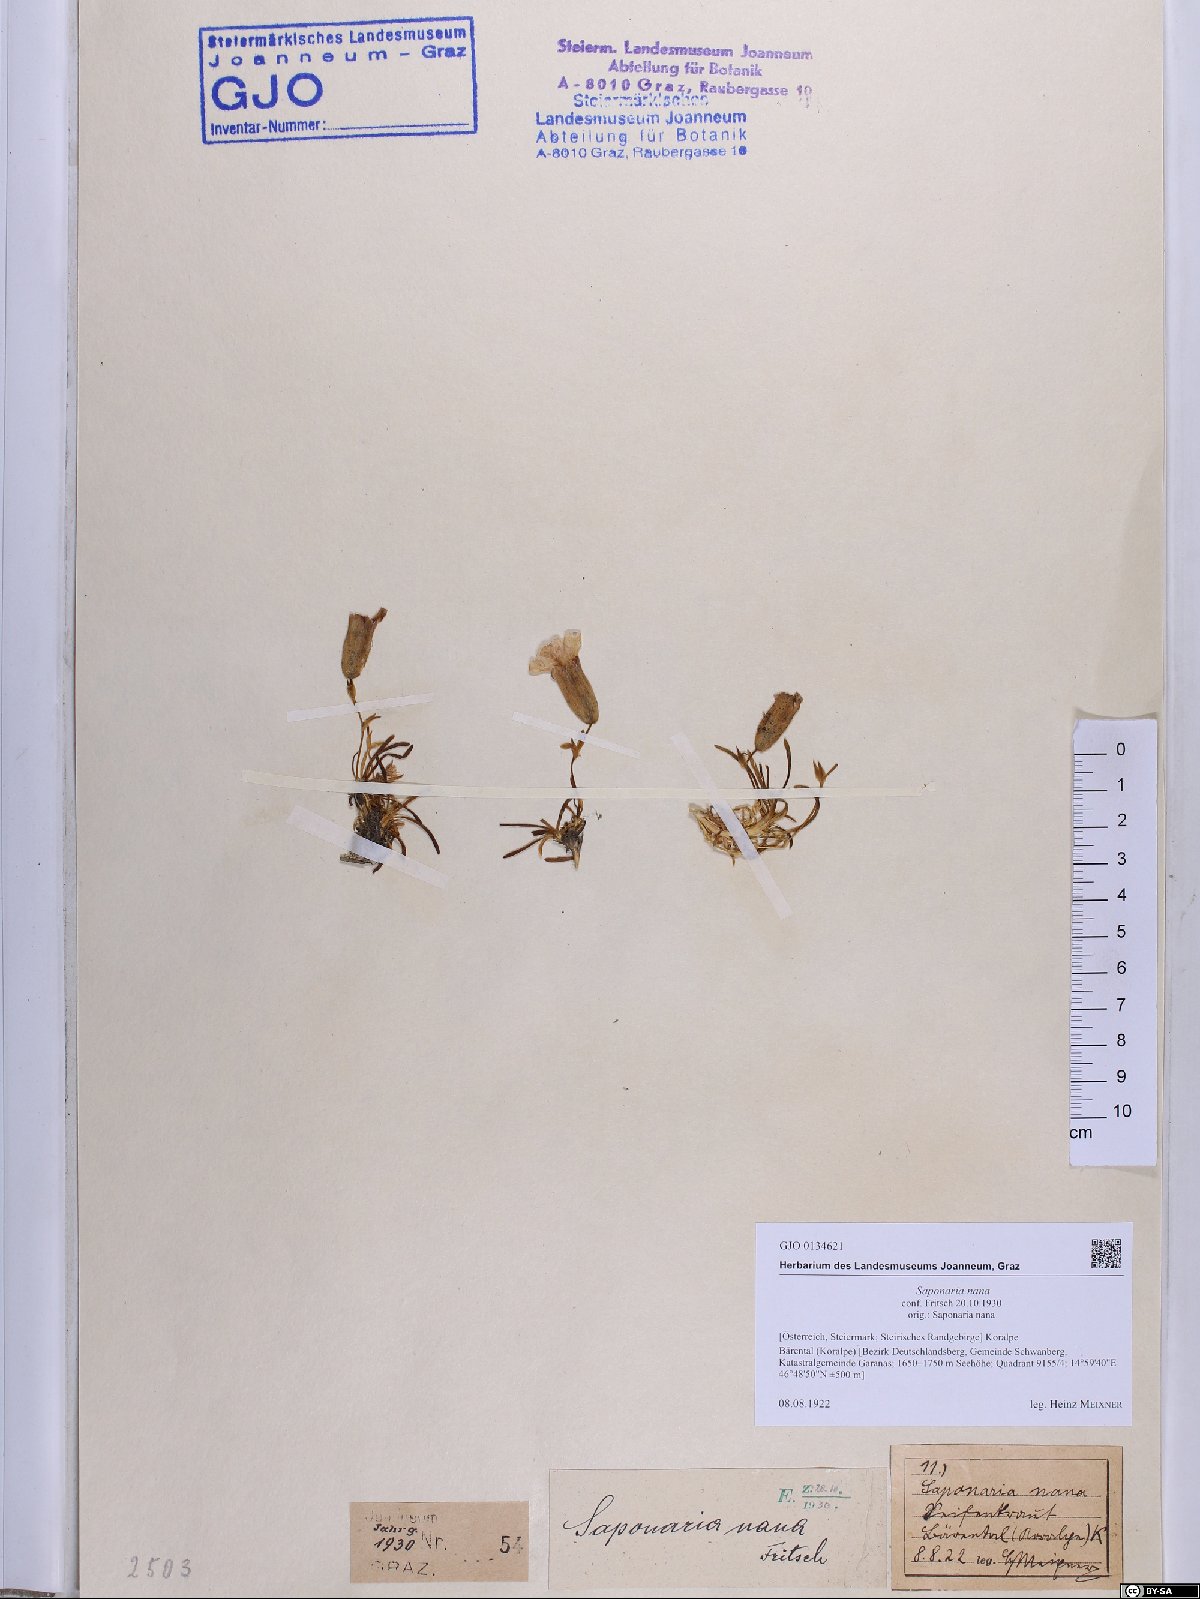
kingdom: Plantae
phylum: Tracheophyta
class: Magnoliopsida
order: Caryophyllales
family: Caryophyllaceae
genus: Saponaria
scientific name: Saponaria pumila
